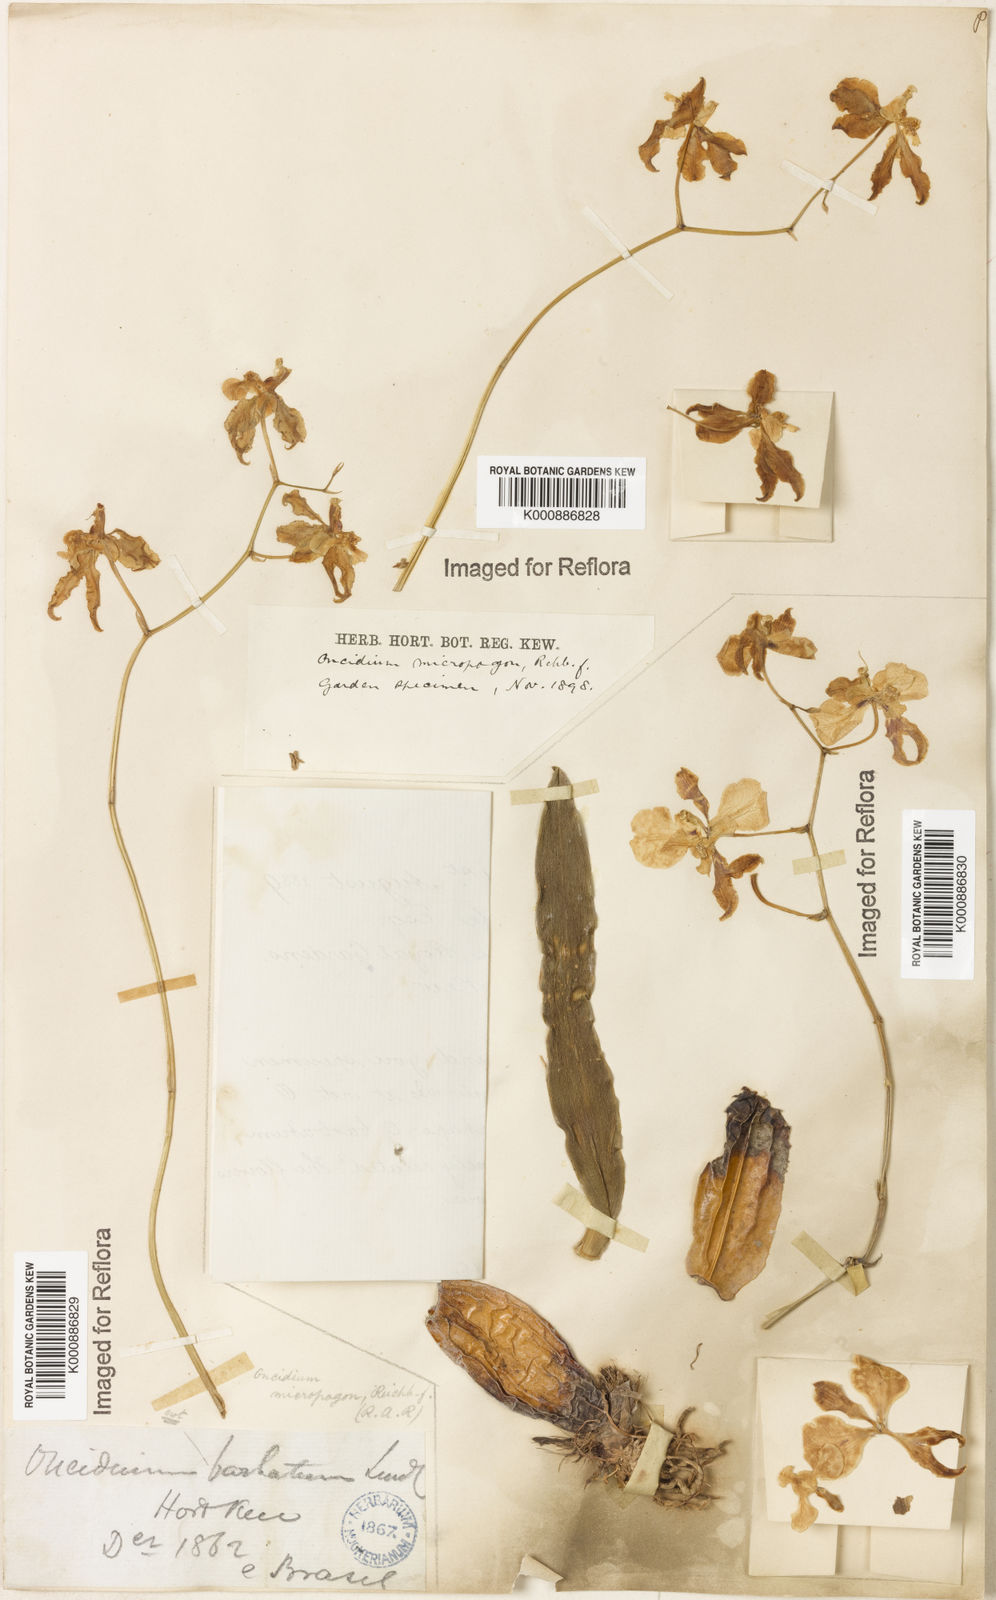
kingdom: Plantae
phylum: Tracheophyta
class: Liliopsida
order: Asparagales
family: Orchidaceae
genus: Gomesa
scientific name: Gomesa ciliata
